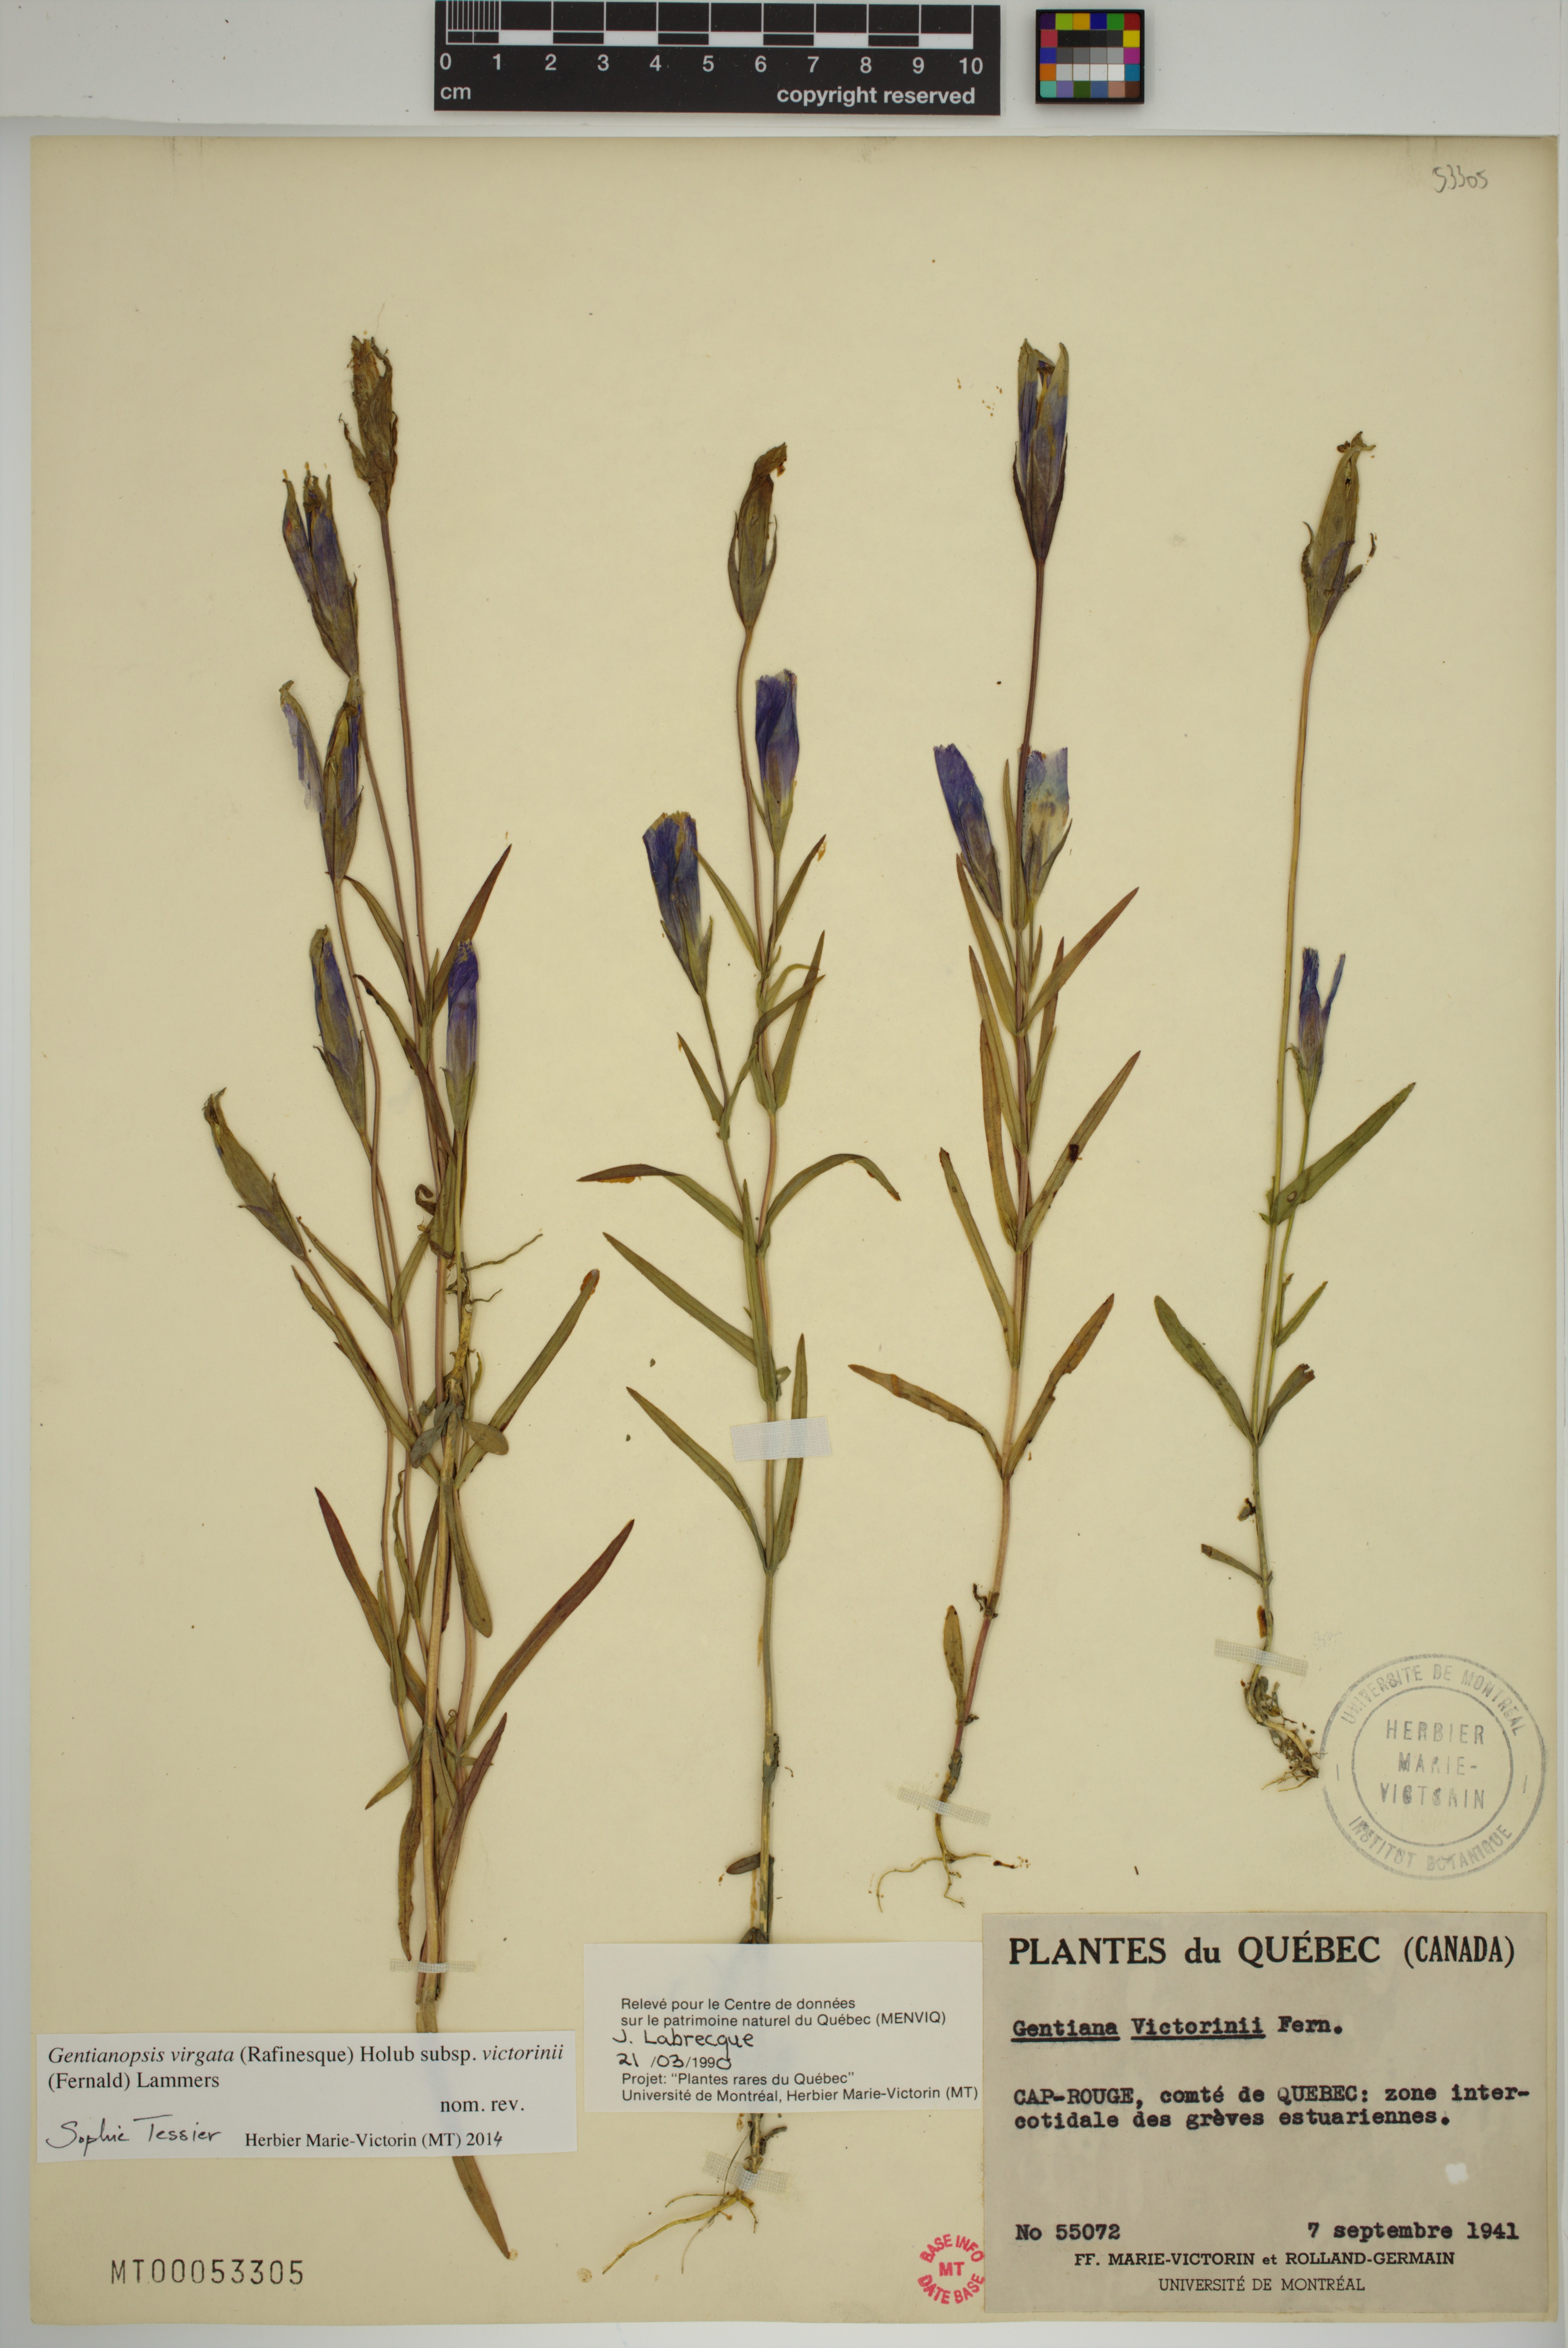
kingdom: Plantae
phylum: Tracheophyta
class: Magnoliopsida
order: Gentianales
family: Gentianaceae
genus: Gentianopsis
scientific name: Gentianopsis victorinii
